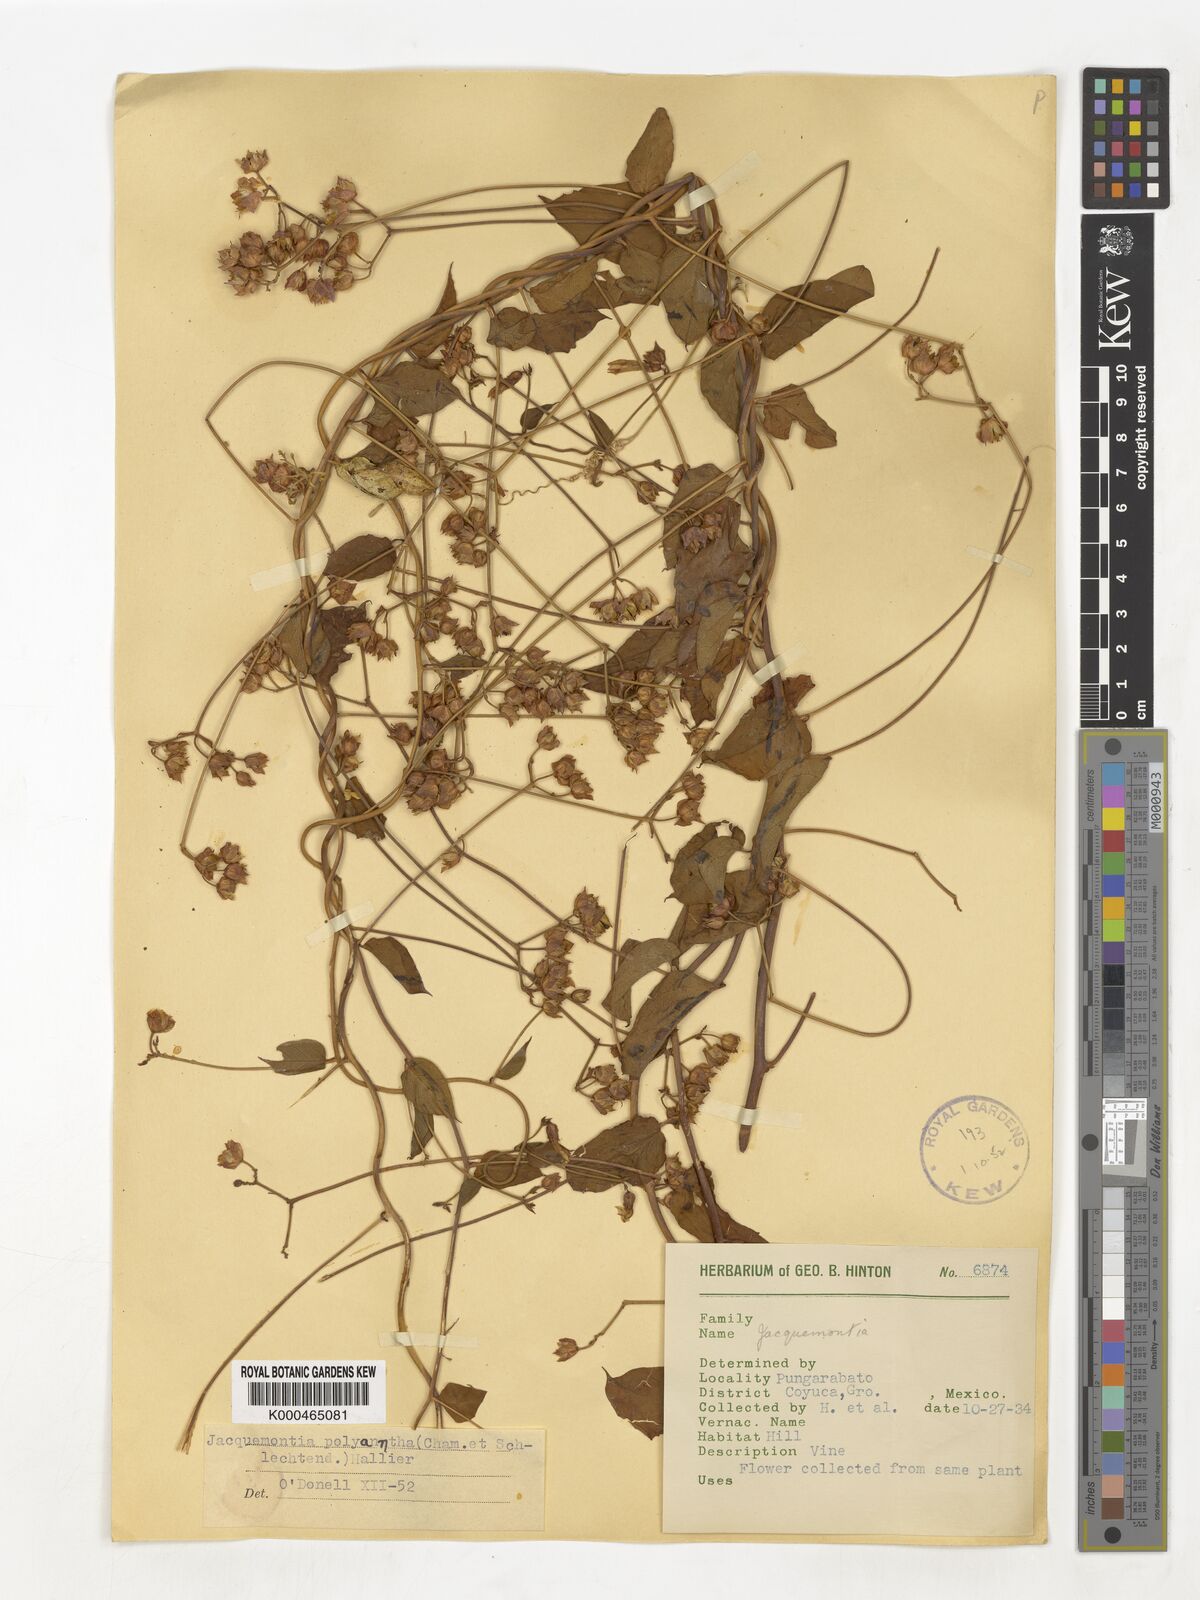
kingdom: Plantae
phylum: Tracheophyta
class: Magnoliopsida
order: Solanales
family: Convolvulaceae
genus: Jacquemontia
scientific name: Jacquemontia polyantha
